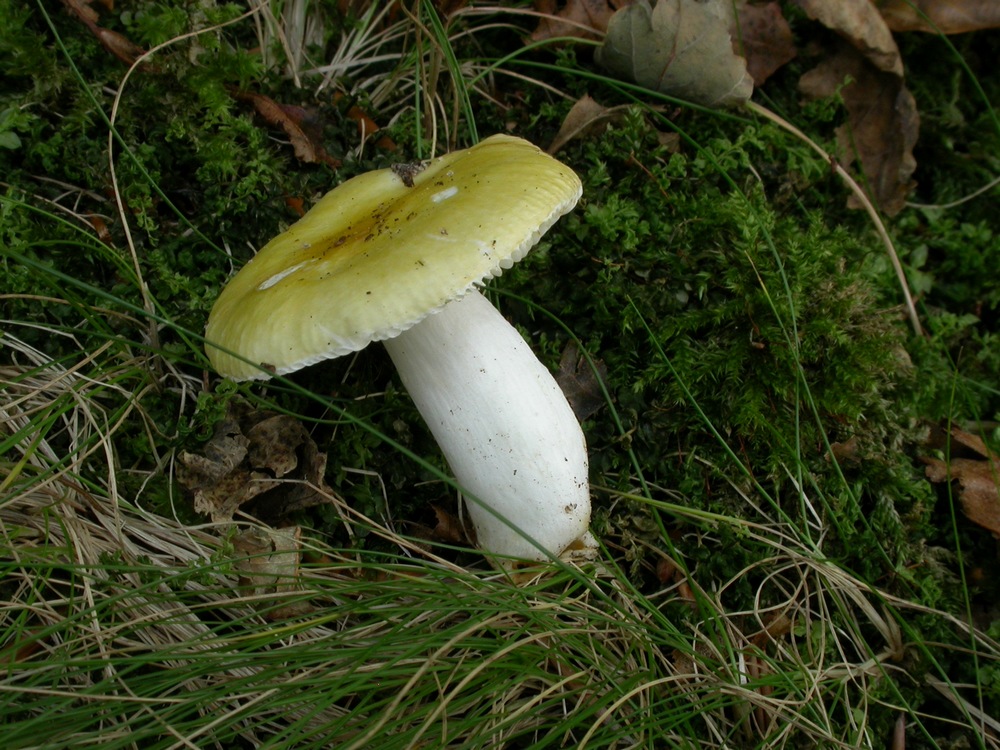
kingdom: Fungi
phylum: Basidiomycota
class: Agaricomycetes
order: Russulales
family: Russulaceae
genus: Russula
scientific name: Russula solaris
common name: sol-skørhat
